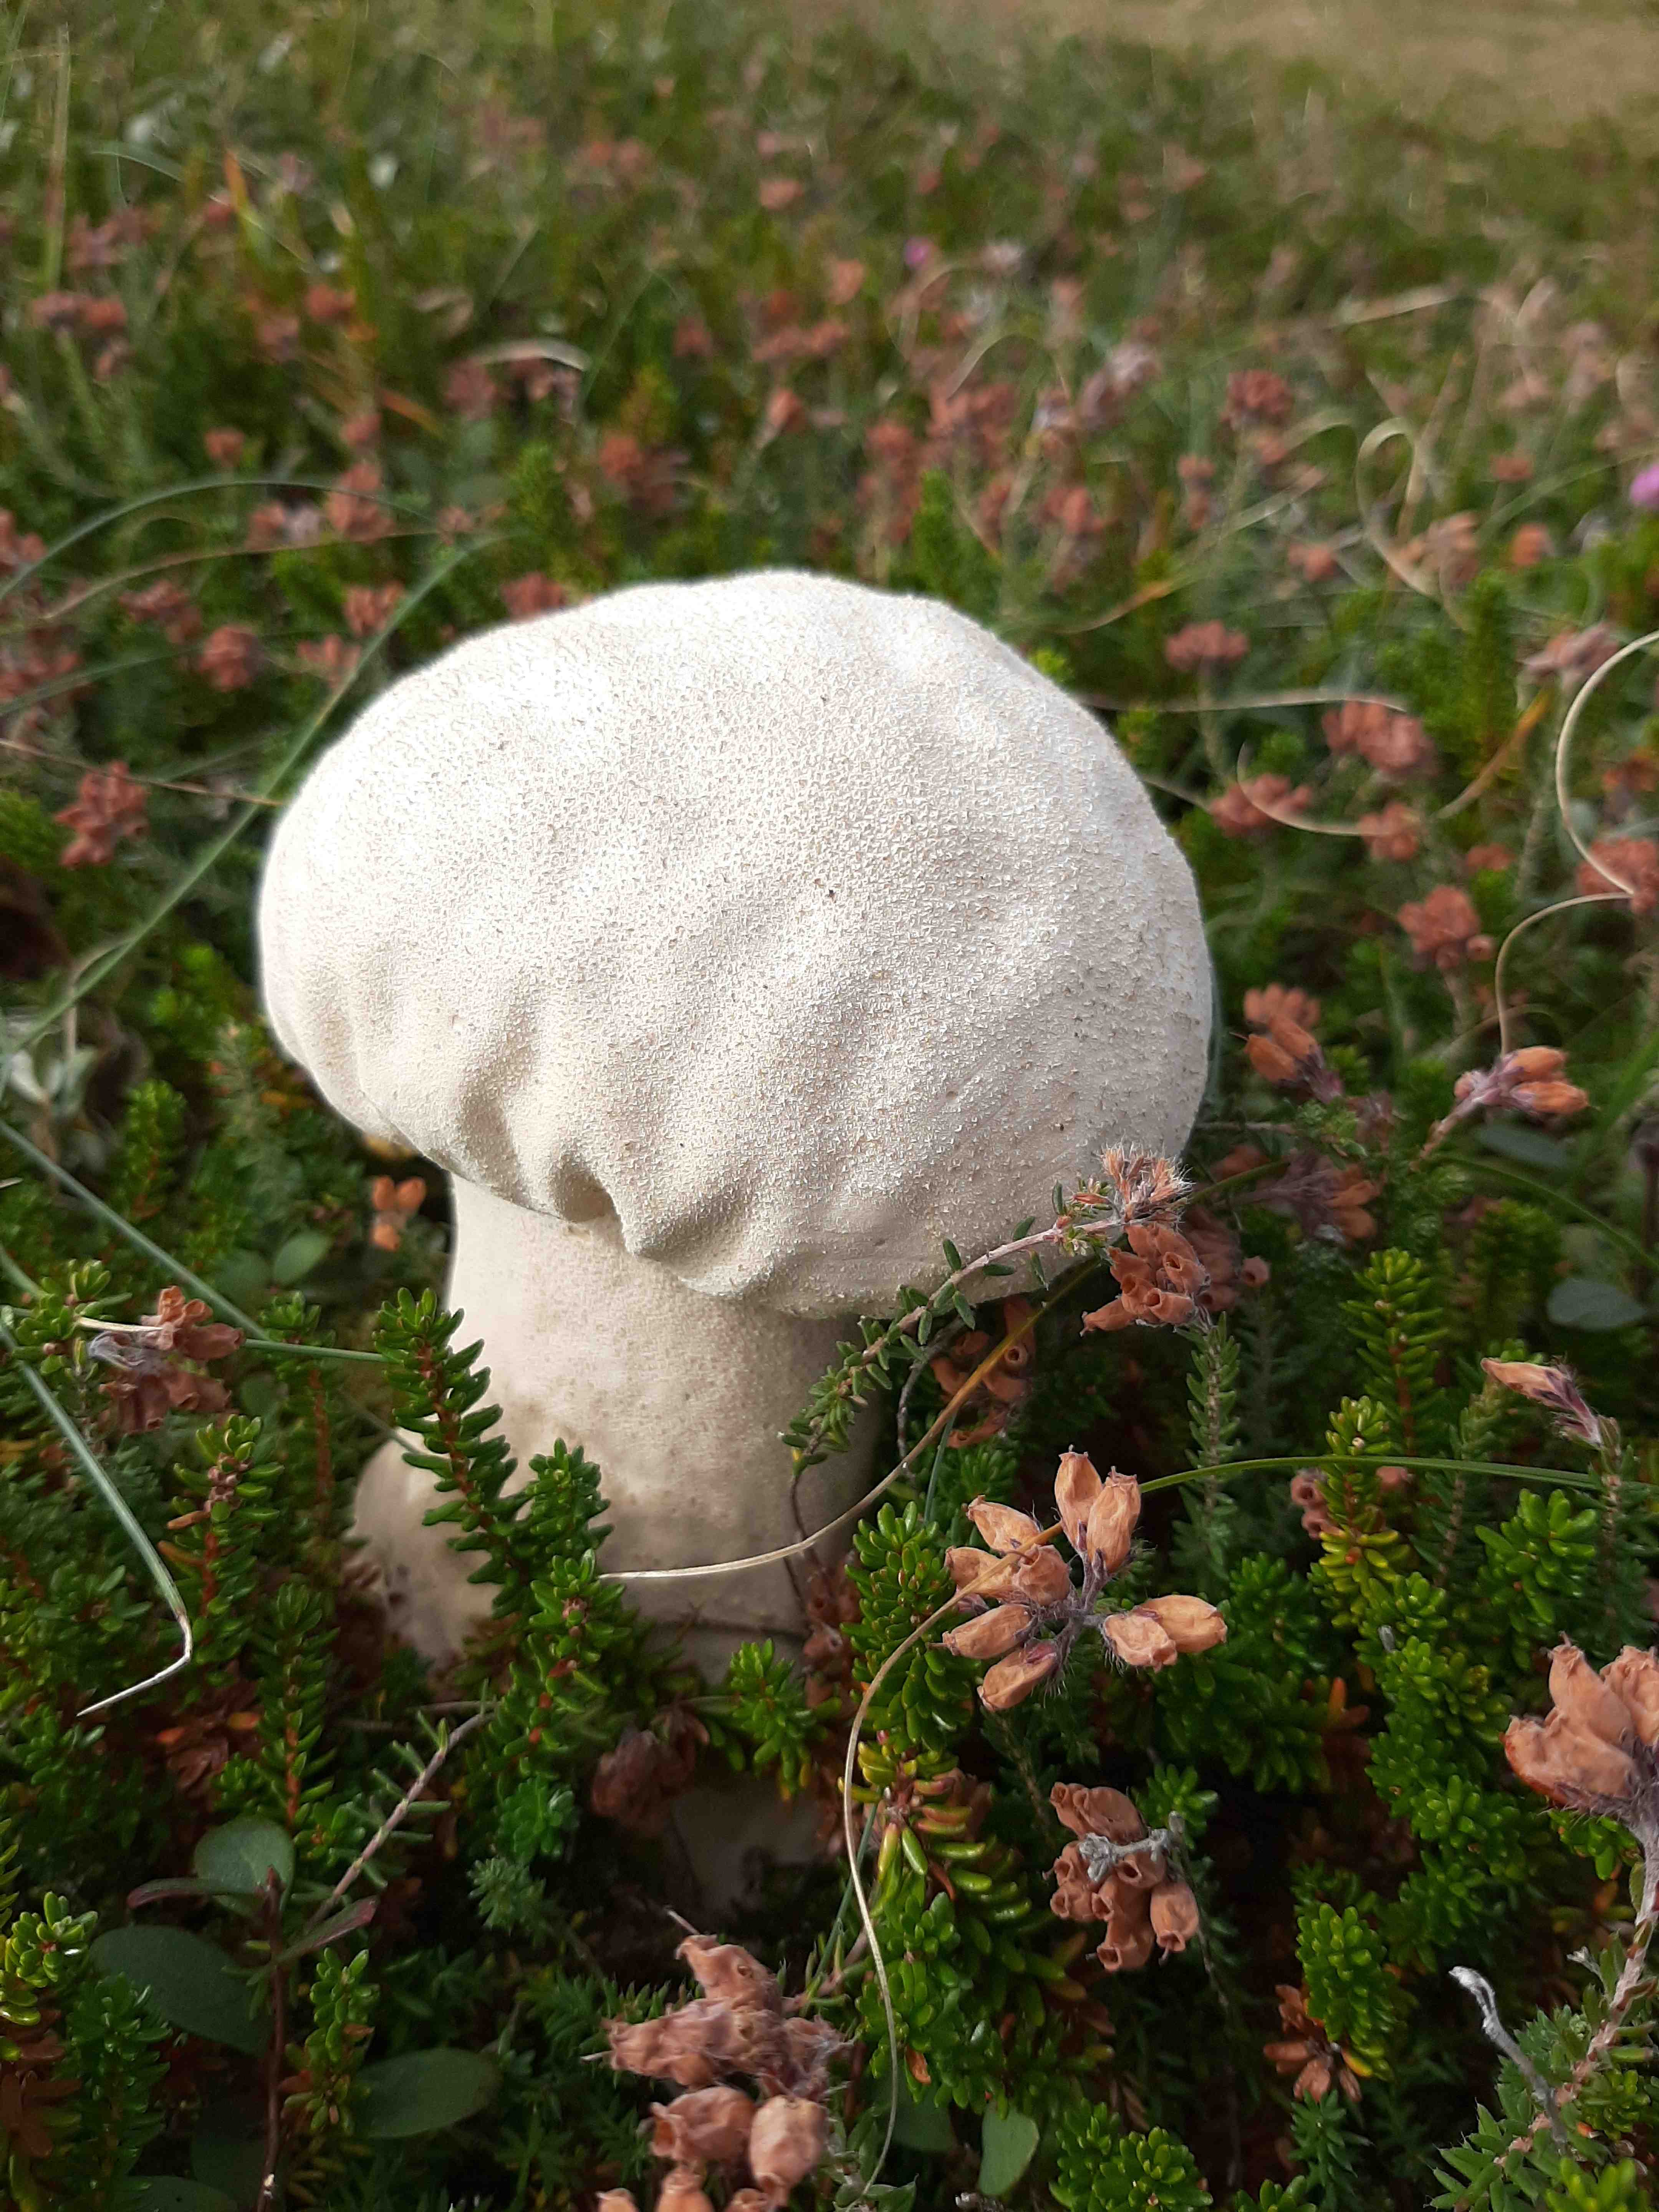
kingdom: Fungi
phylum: Basidiomycota
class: Agaricomycetes
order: Agaricales
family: Lycoperdaceae
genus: Lycoperdon
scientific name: Lycoperdon excipuliforme
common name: højstokket støvbold
